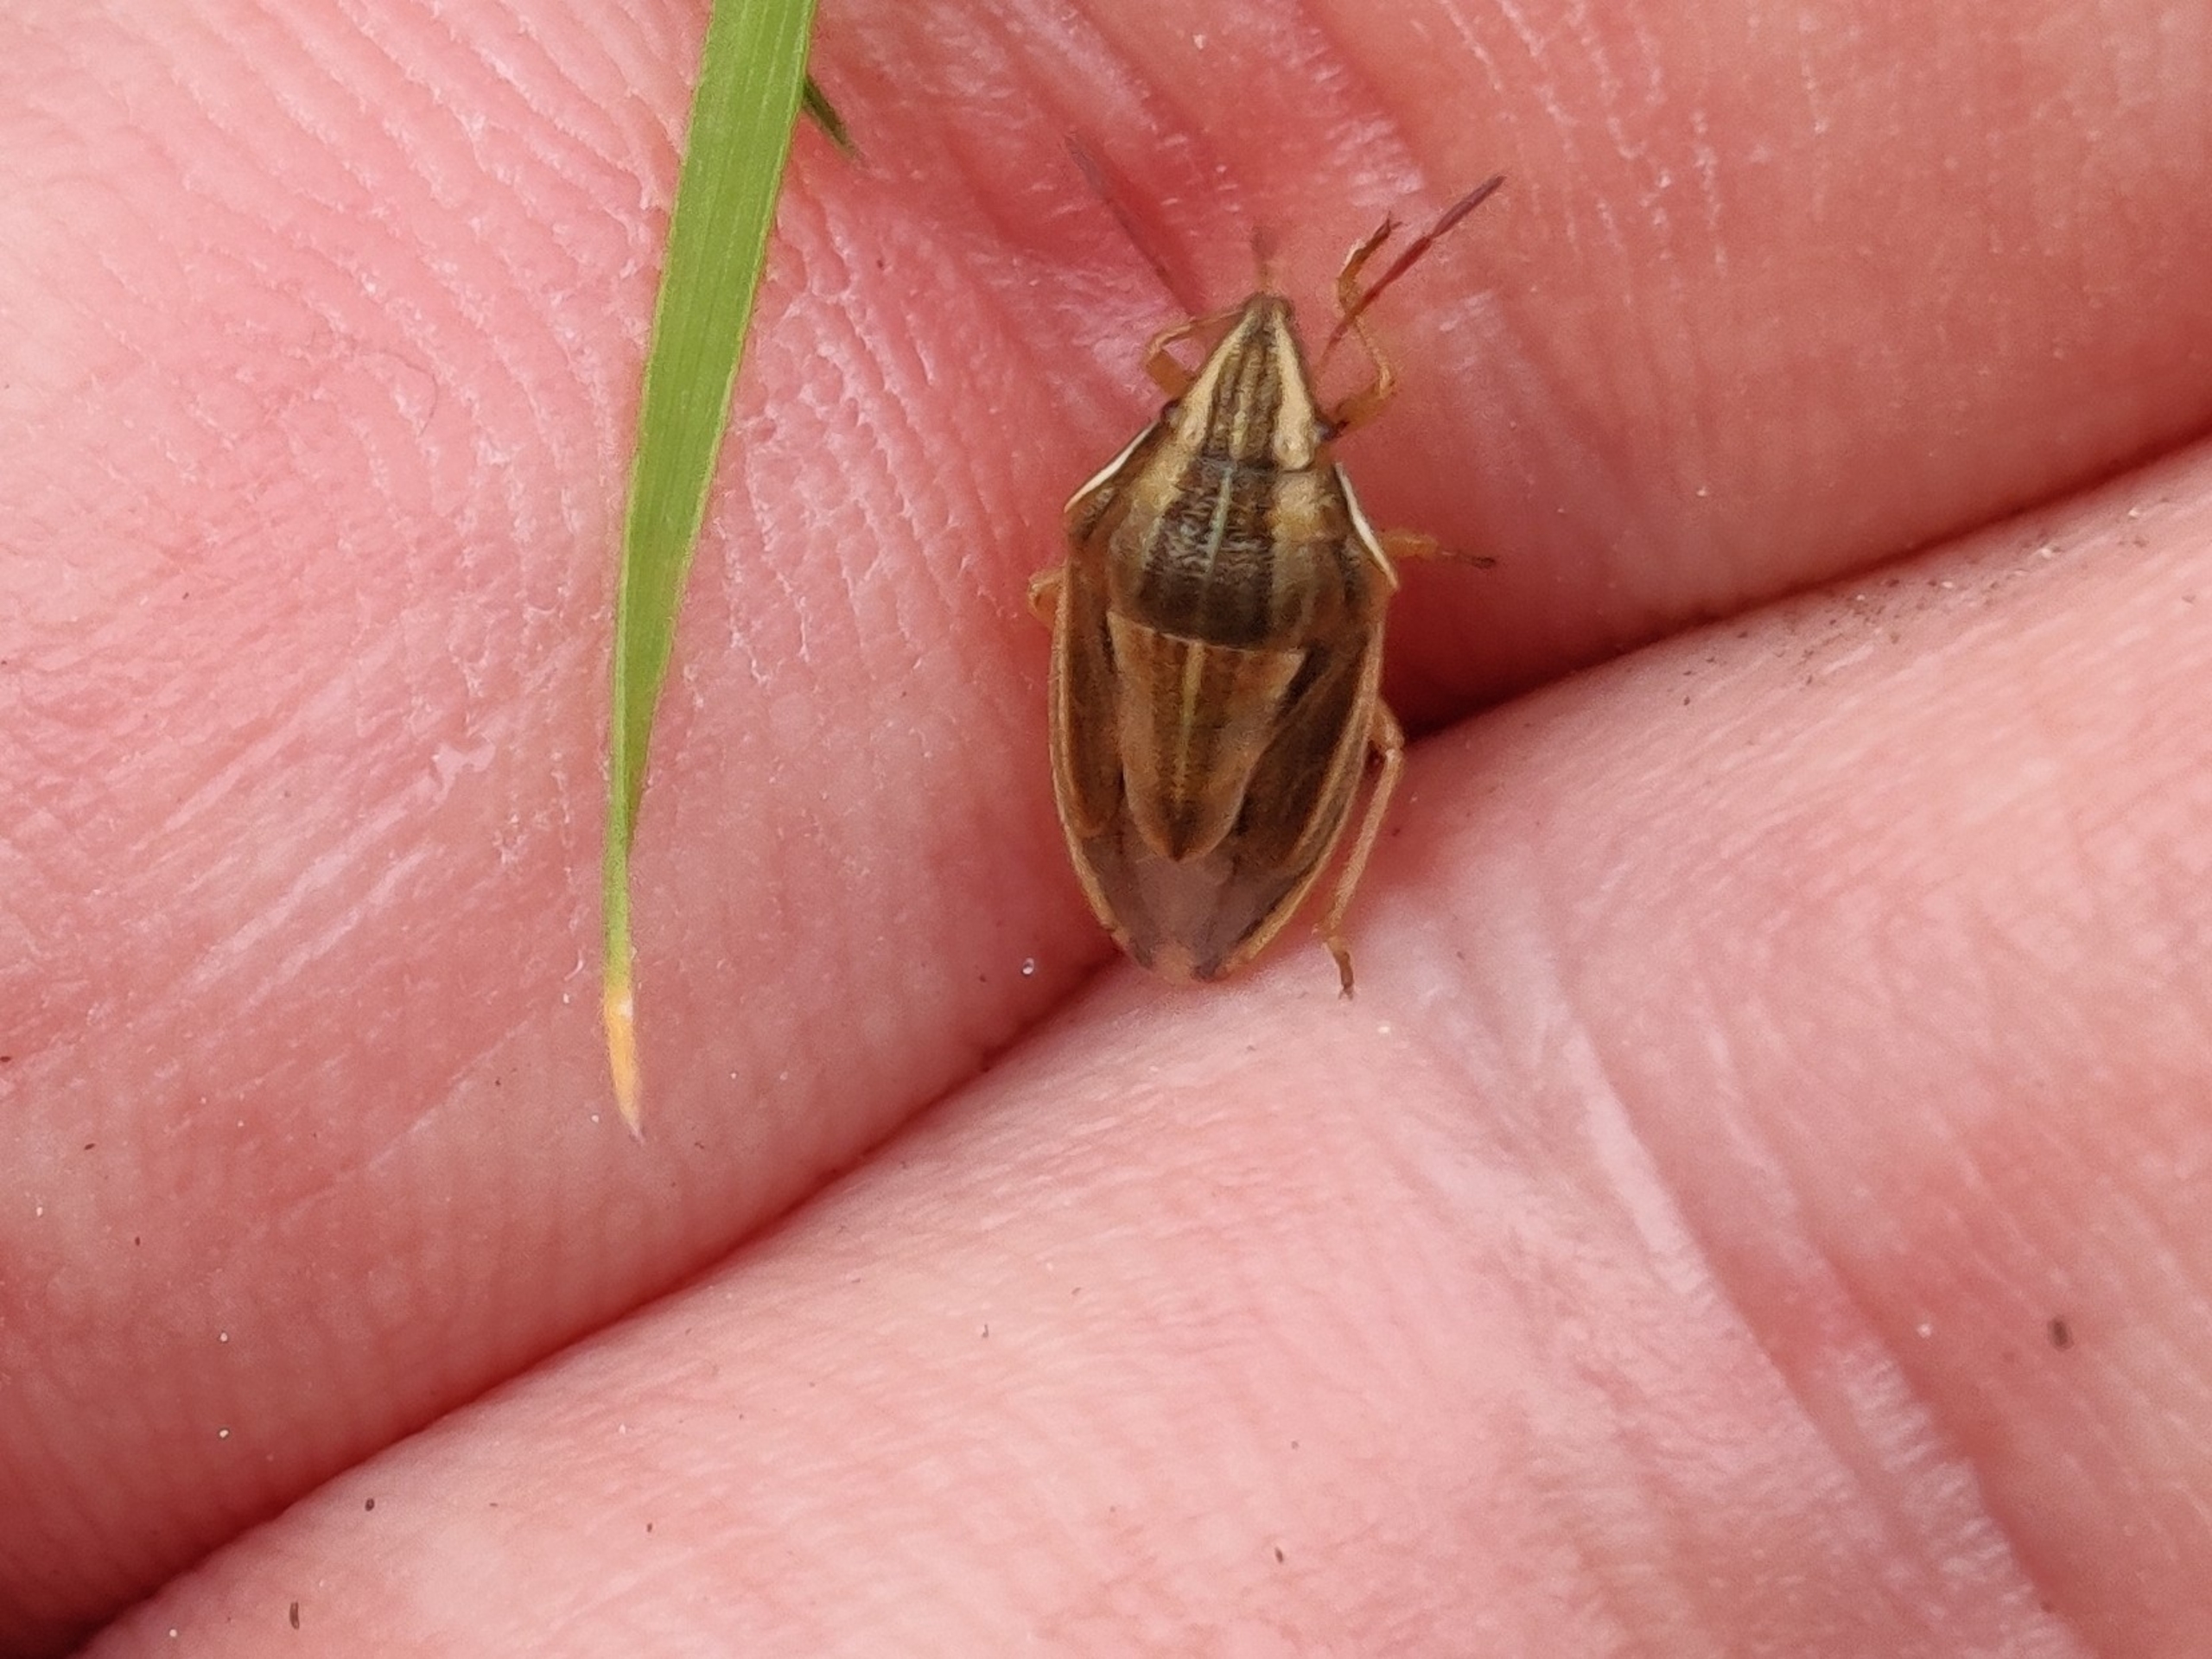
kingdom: Animalia
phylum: Arthropoda
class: Insecta
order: Hemiptera
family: Pentatomidae
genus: Aelia
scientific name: Aelia acuminata
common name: Almindelig bispetæge
